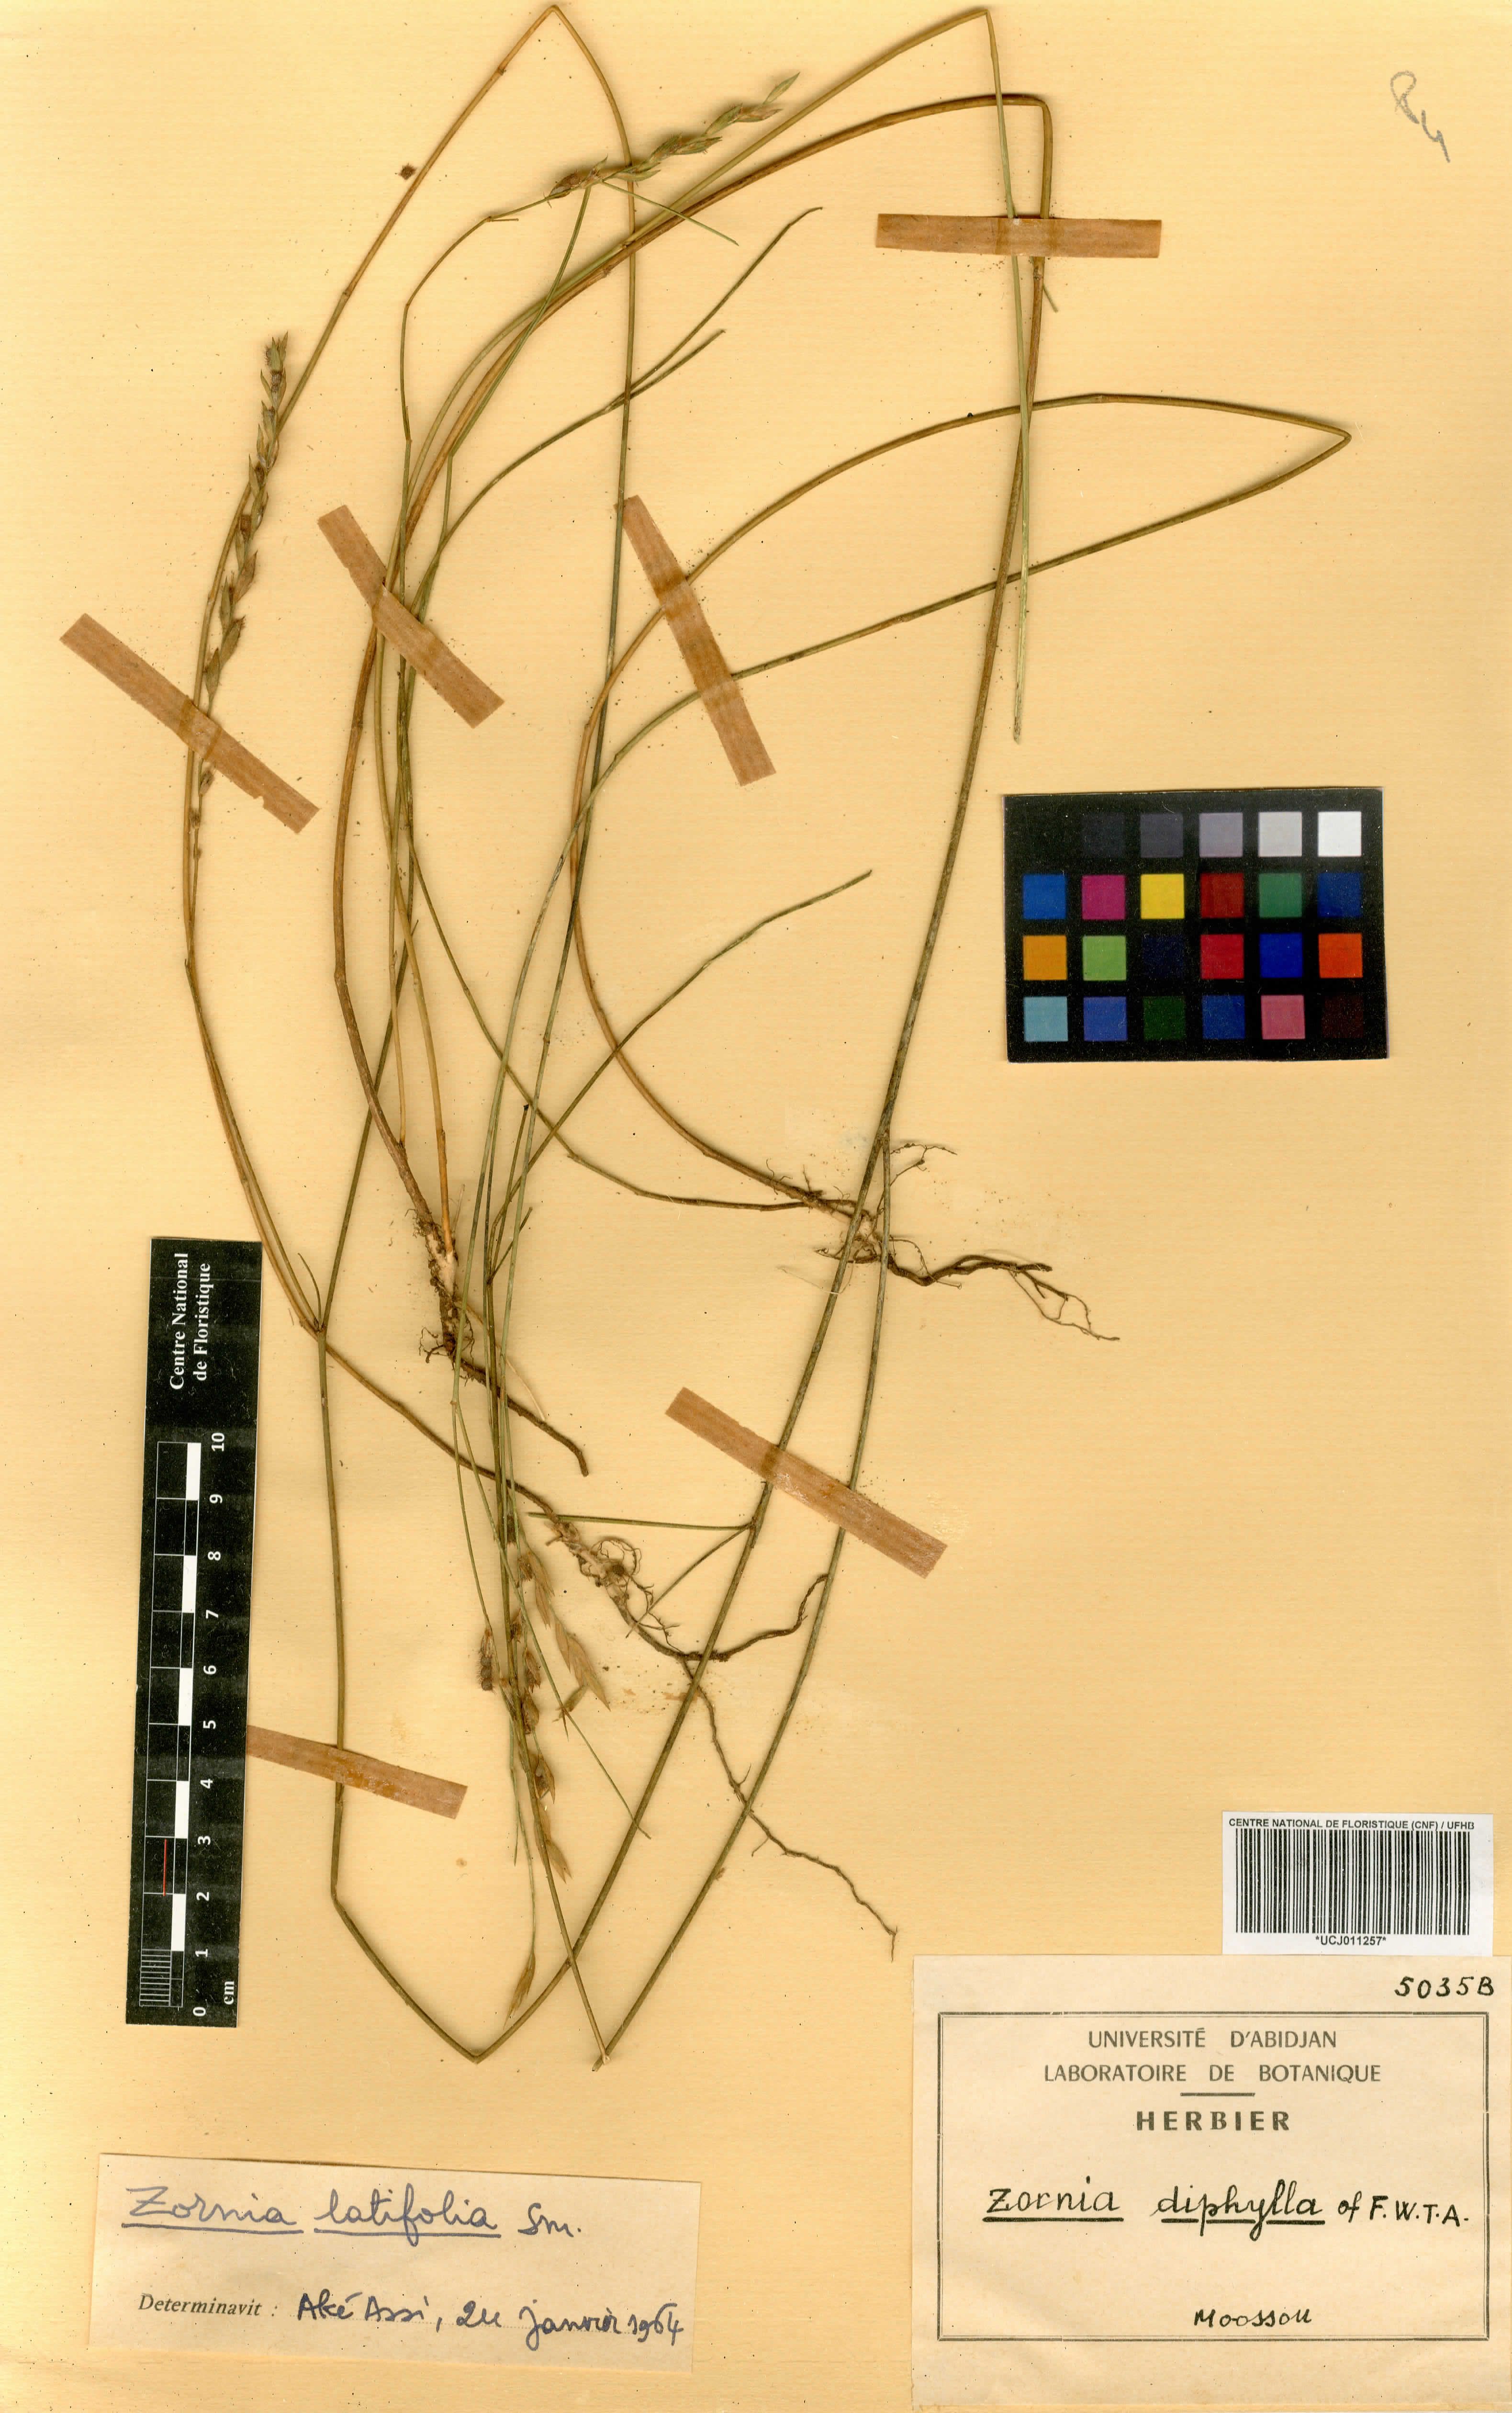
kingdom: Plantae
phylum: Tracheophyta
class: Magnoliopsida
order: Fabales
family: Fabaceae
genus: Zornia
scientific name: Zornia latifolia
